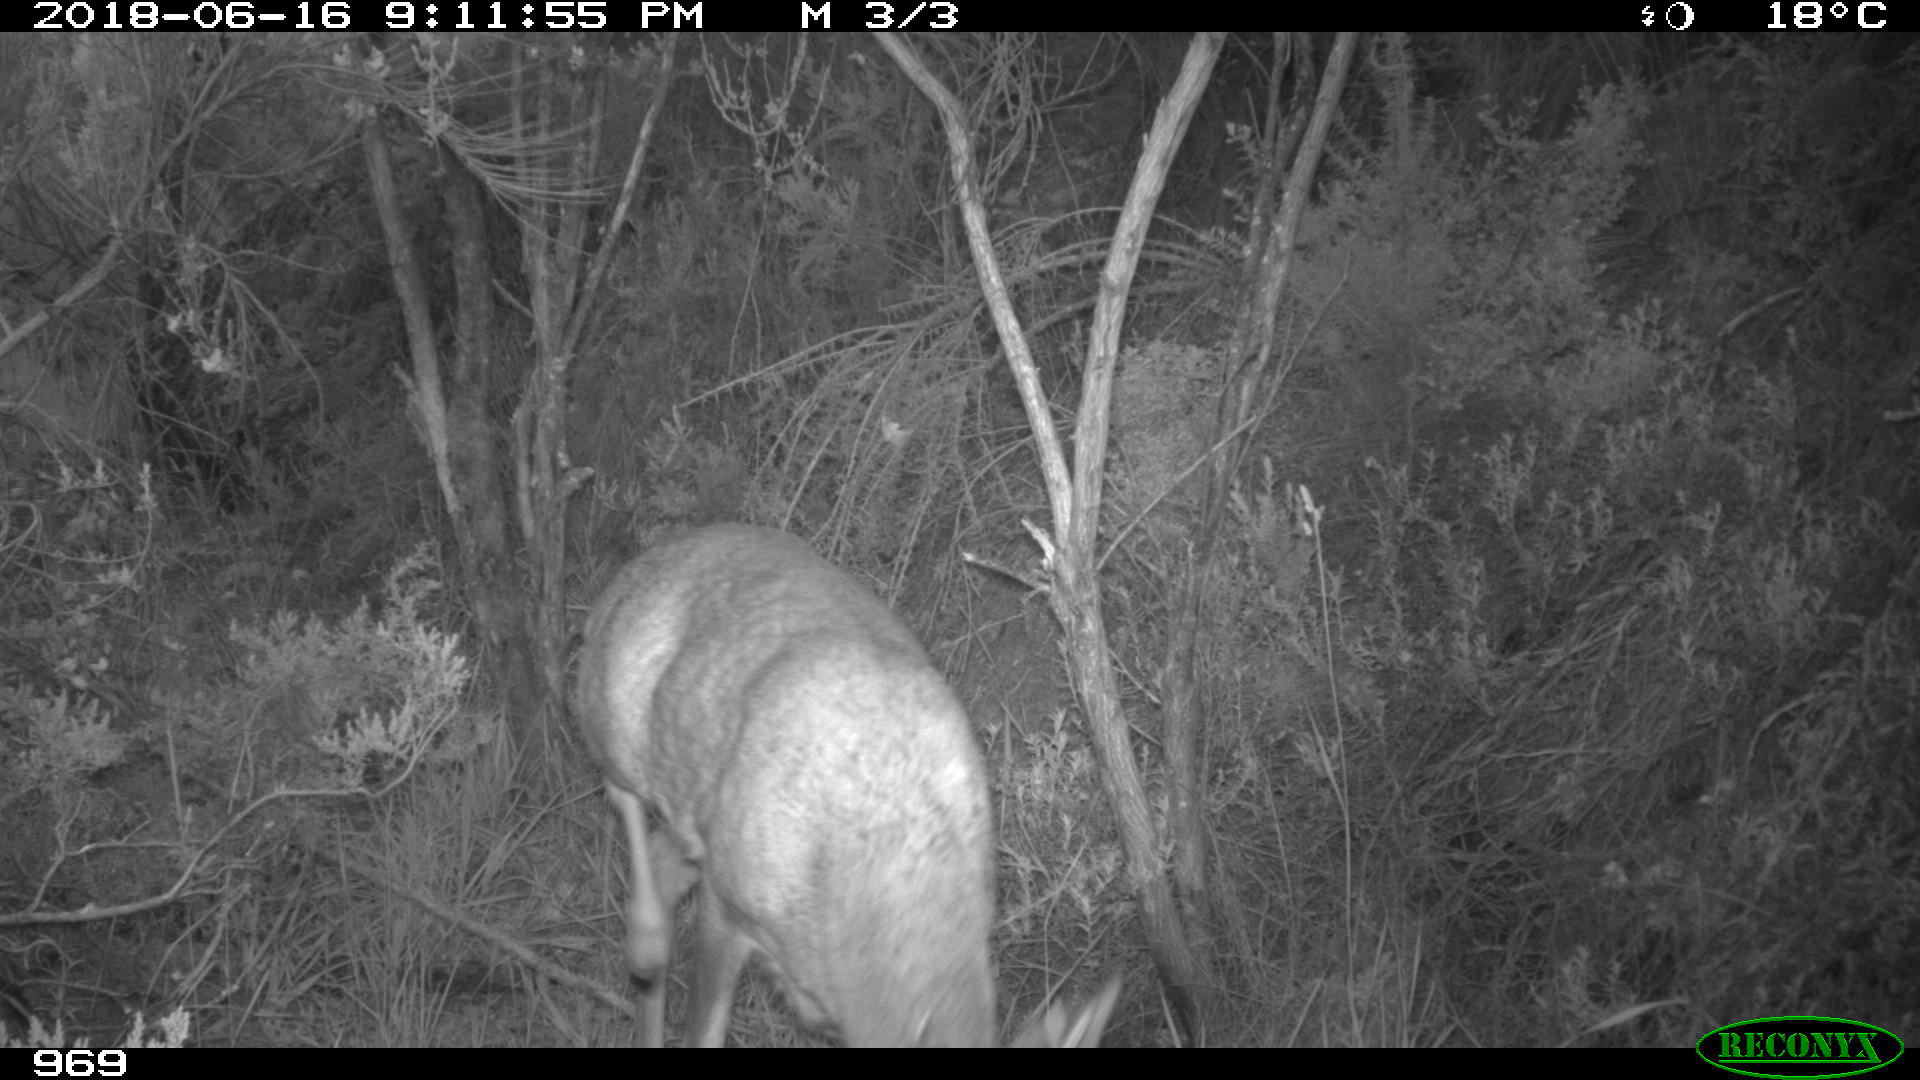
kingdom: Animalia
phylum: Chordata
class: Mammalia
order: Artiodactyla
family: Cervidae
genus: Capreolus
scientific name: Capreolus capreolus
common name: Western roe deer
